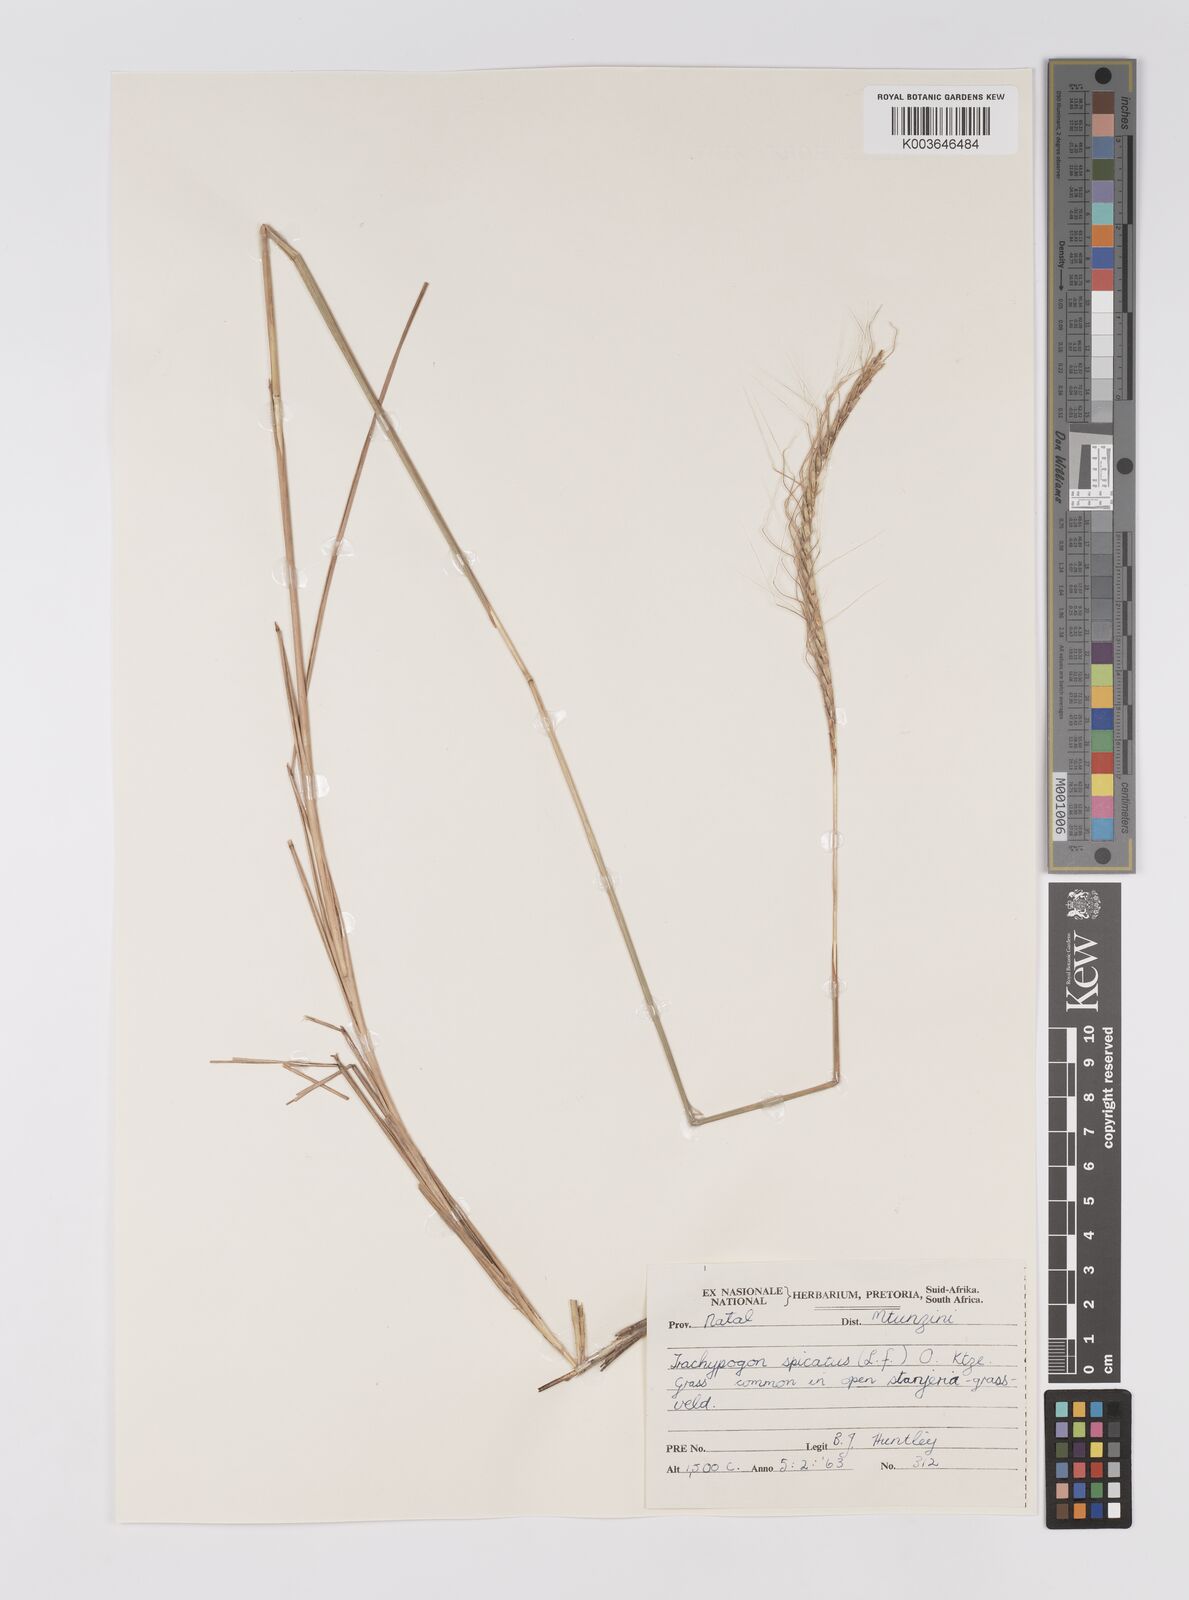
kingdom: Plantae
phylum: Tracheophyta
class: Liliopsida
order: Poales
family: Poaceae
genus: Trachypogon
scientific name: Trachypogon spicatus
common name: Crinkle-awn
